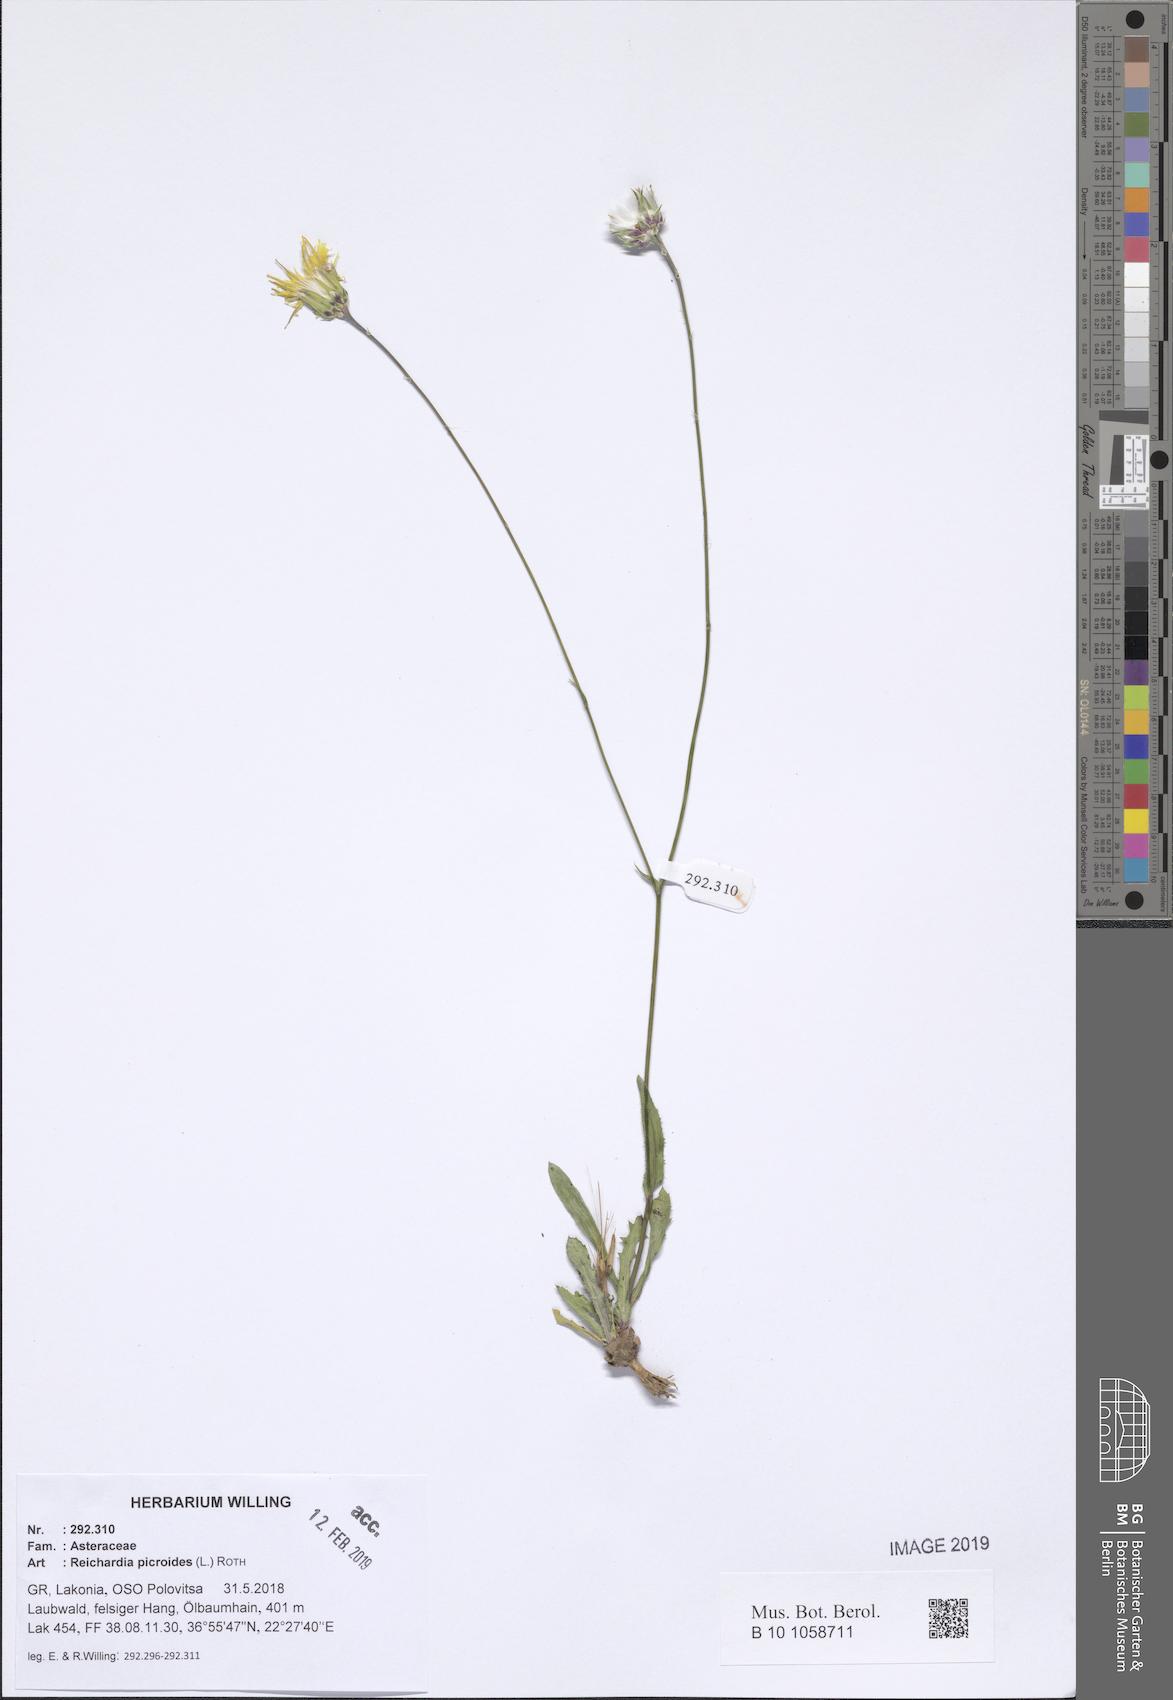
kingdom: Plantae
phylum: Tracheophyta
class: Magnoliopsida
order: Asterales
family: Asteraceae
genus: Reichardia
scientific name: Reichardia picroides
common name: Common brighteyes
